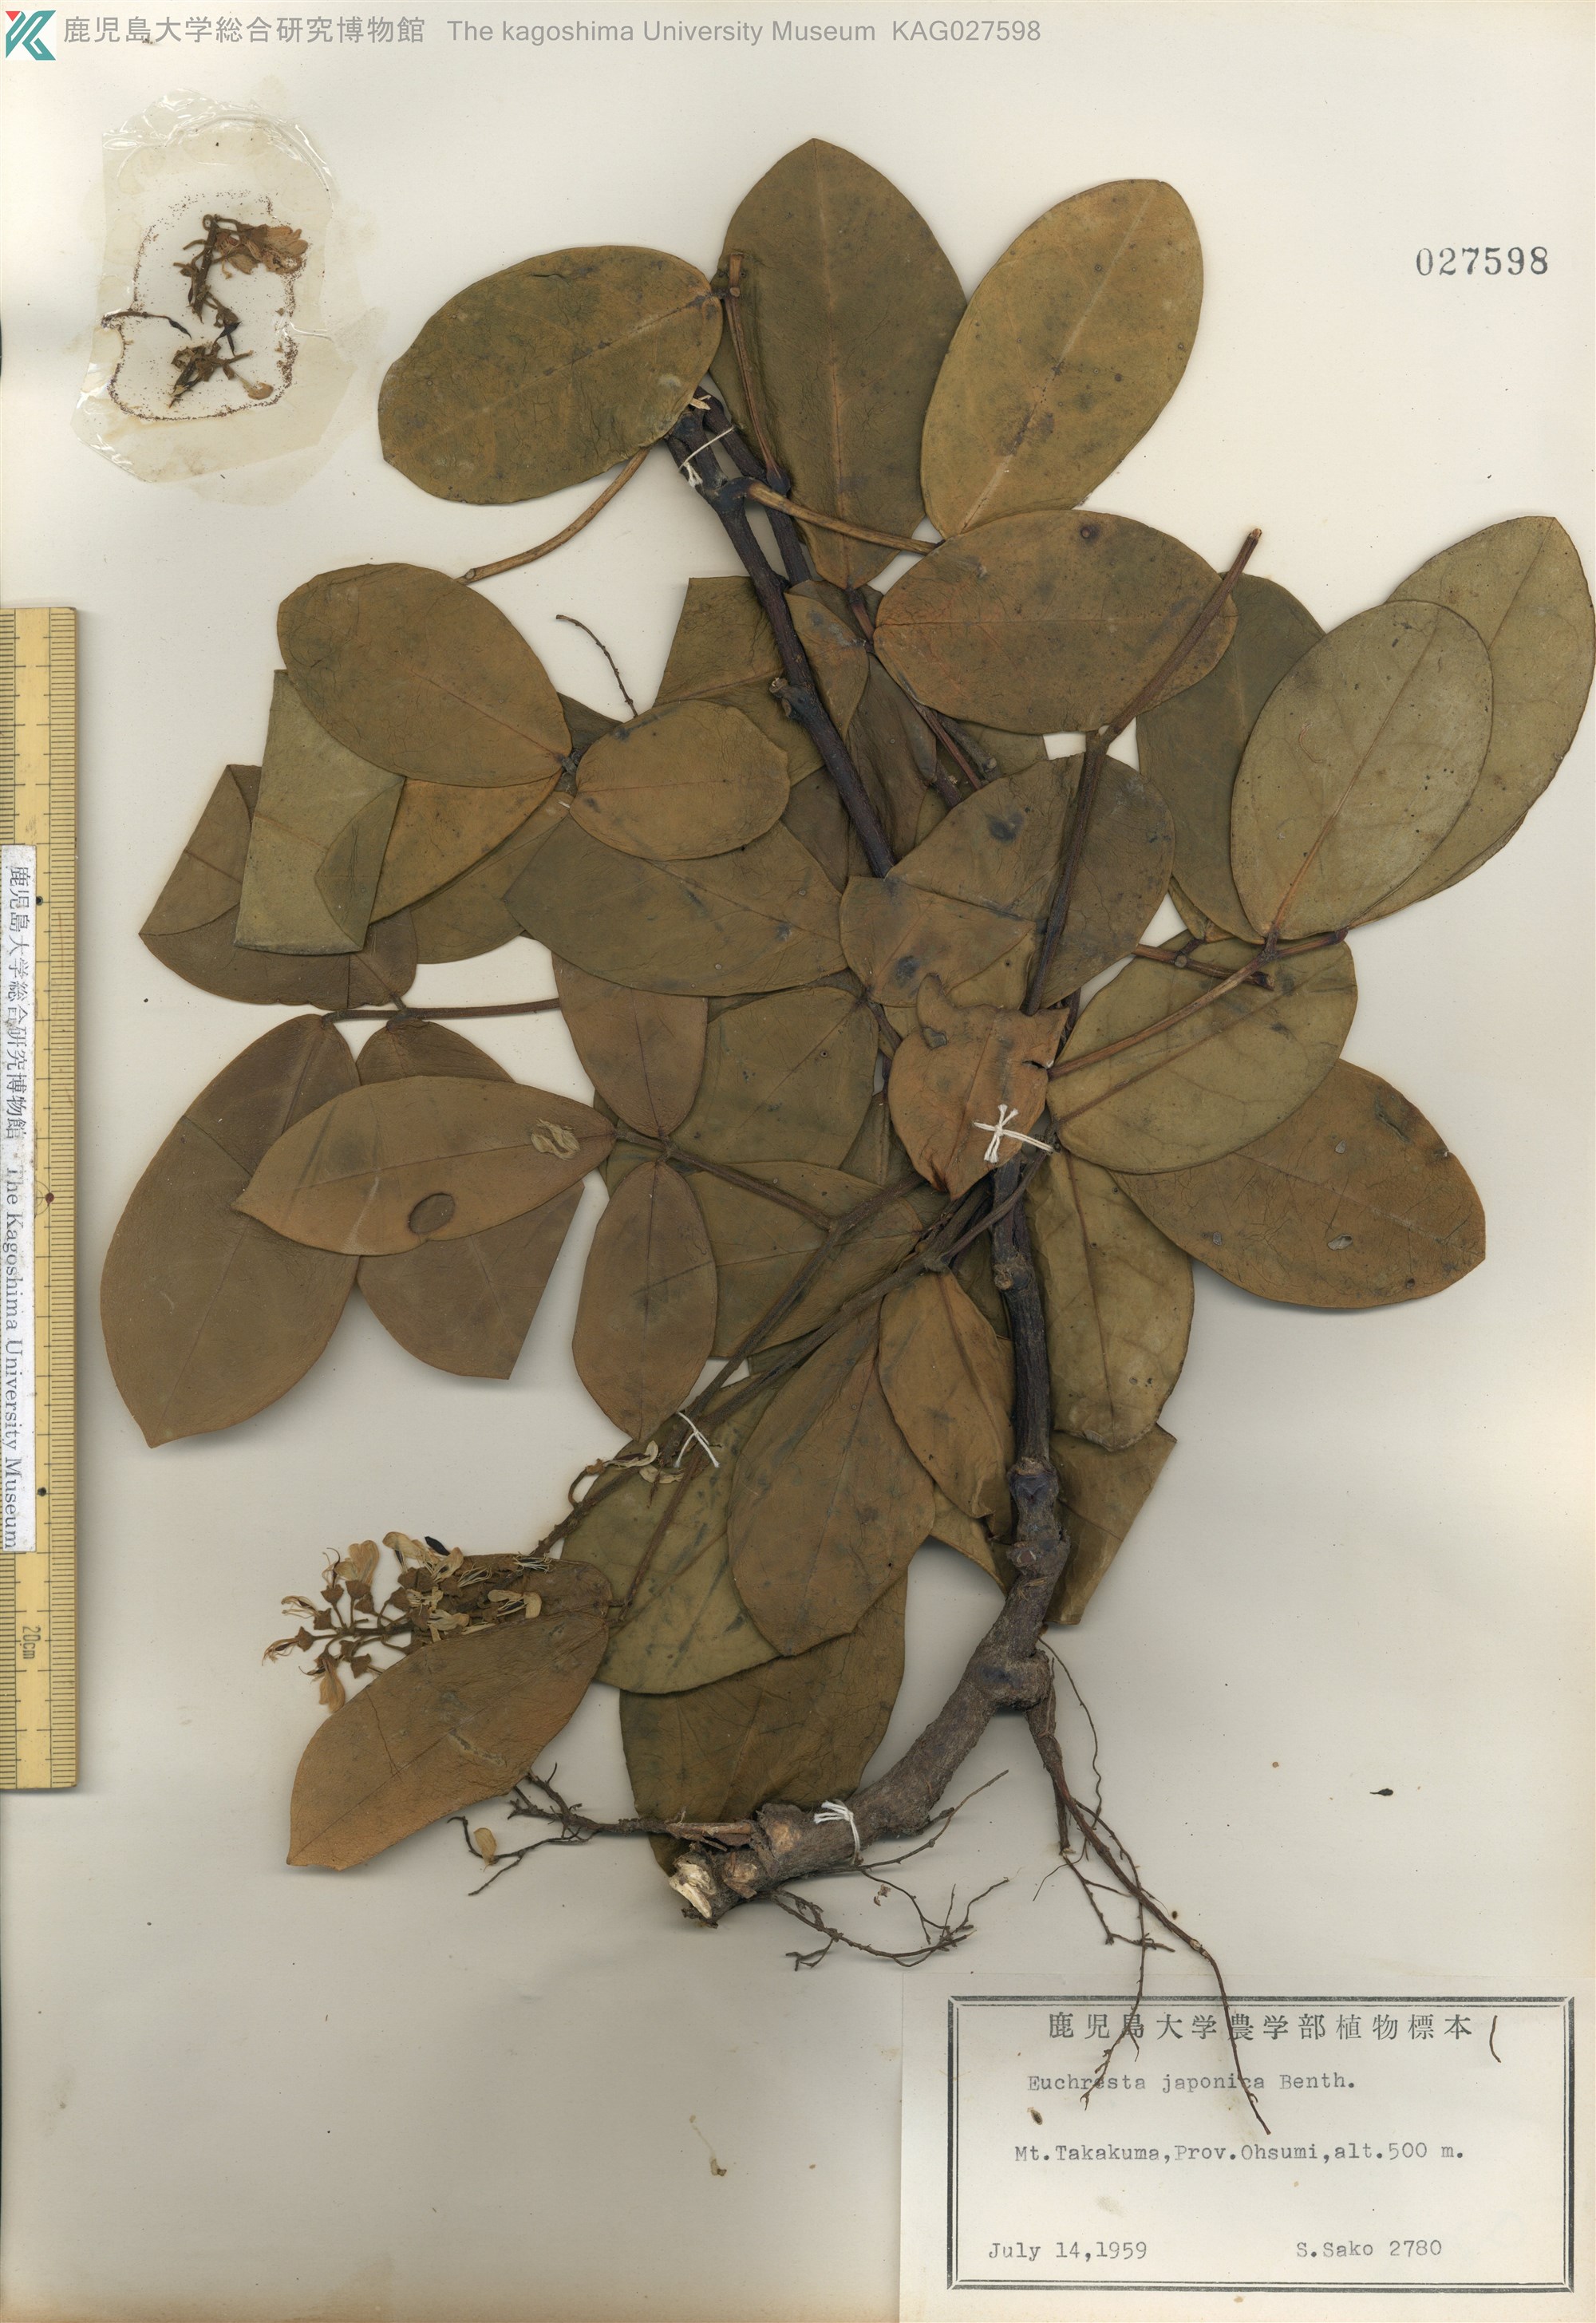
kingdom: Plantae
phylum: Tracheophyta
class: Magnoliopsida
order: Fabales
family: Fabaceae
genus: Euchresta
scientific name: Euchresta japonica
